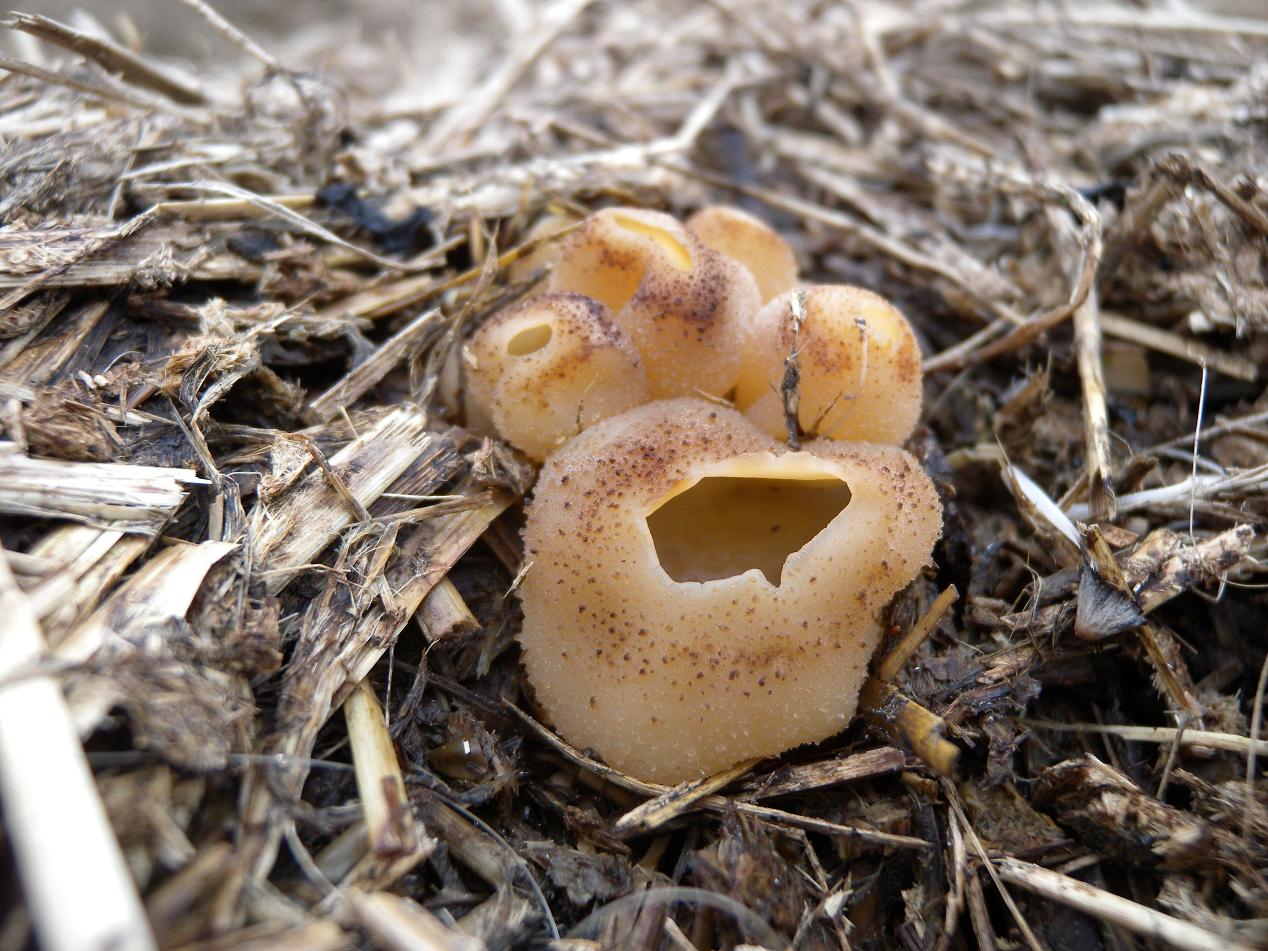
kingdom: Fungi
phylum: Ascomycota
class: Pezizomycetes
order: Pezizales
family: Pezizaceae
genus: Peziza
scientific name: Peziza vesiculosa
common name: blære-bægersvamp
